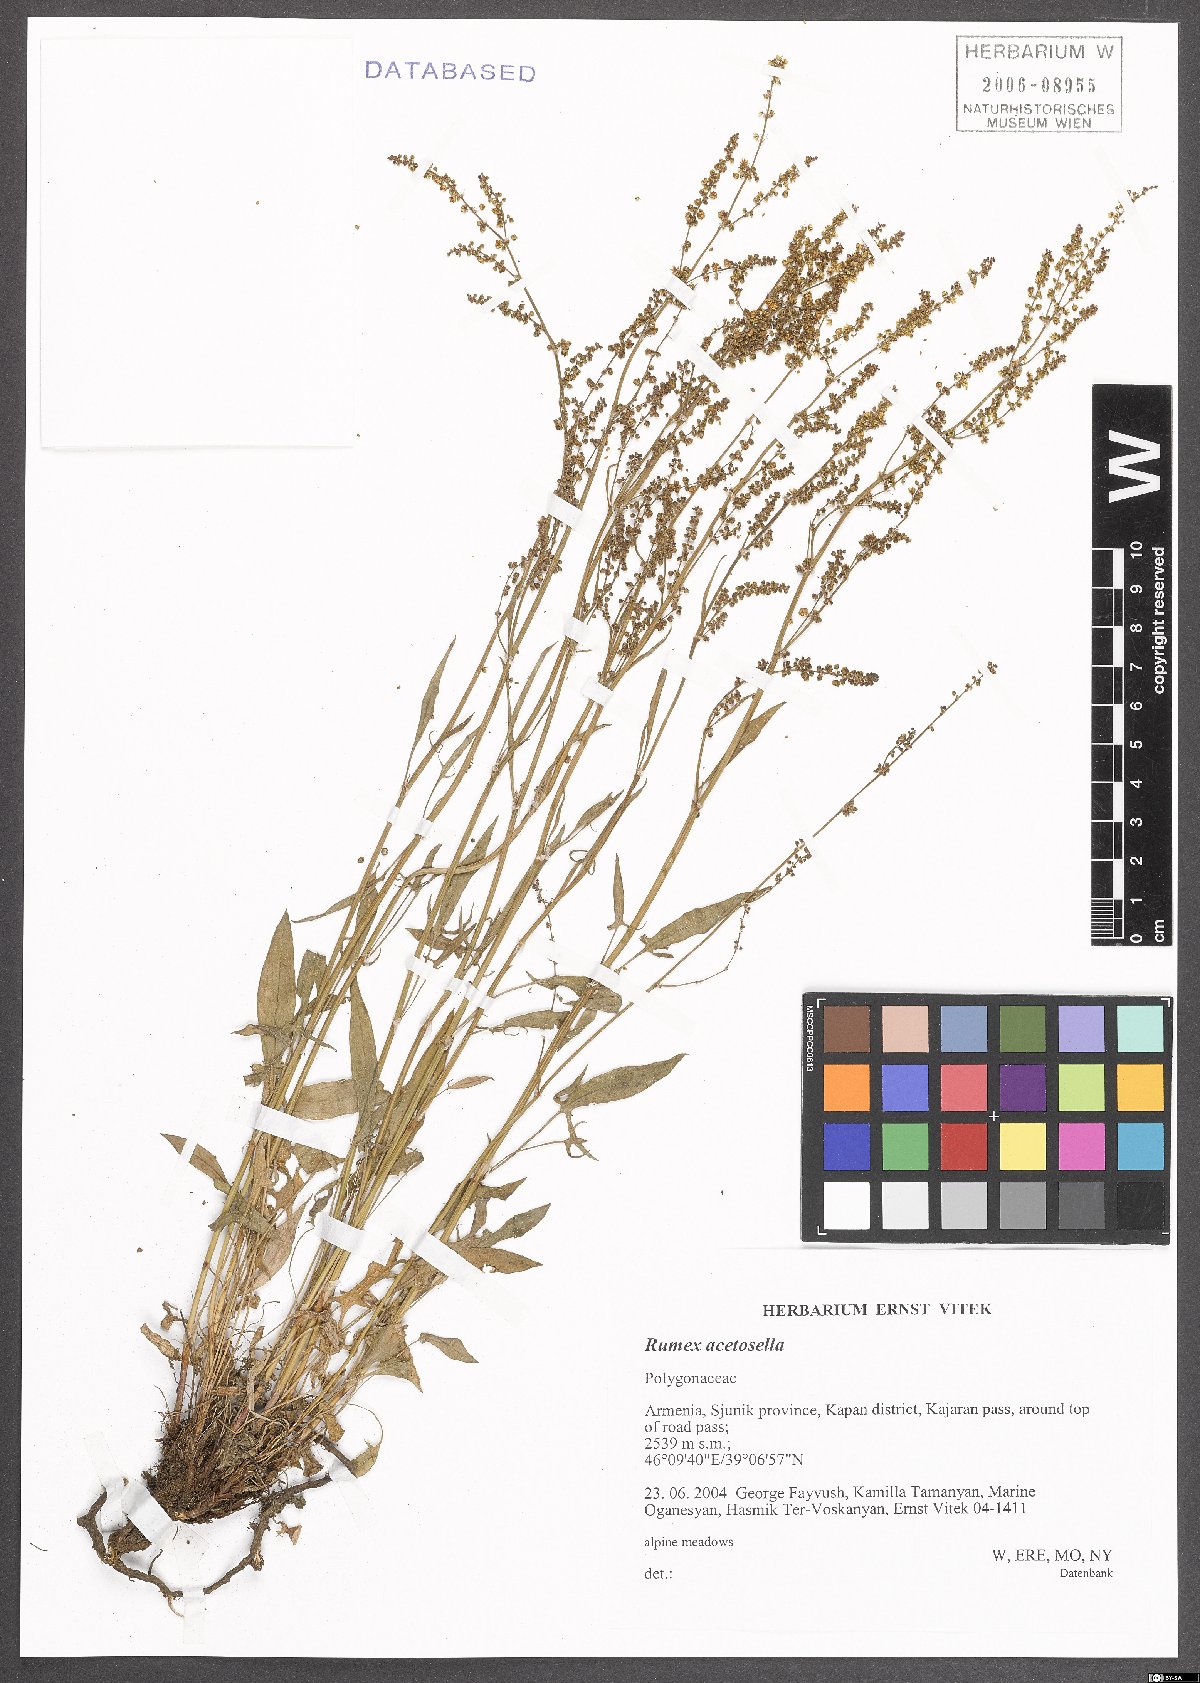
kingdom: Plantae
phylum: Tracheophyta
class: Magnoliopsida
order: Caryophyllales
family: Polygonaceae
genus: Rumex
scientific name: Rumex acetosella
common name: Common sheep sorrel
